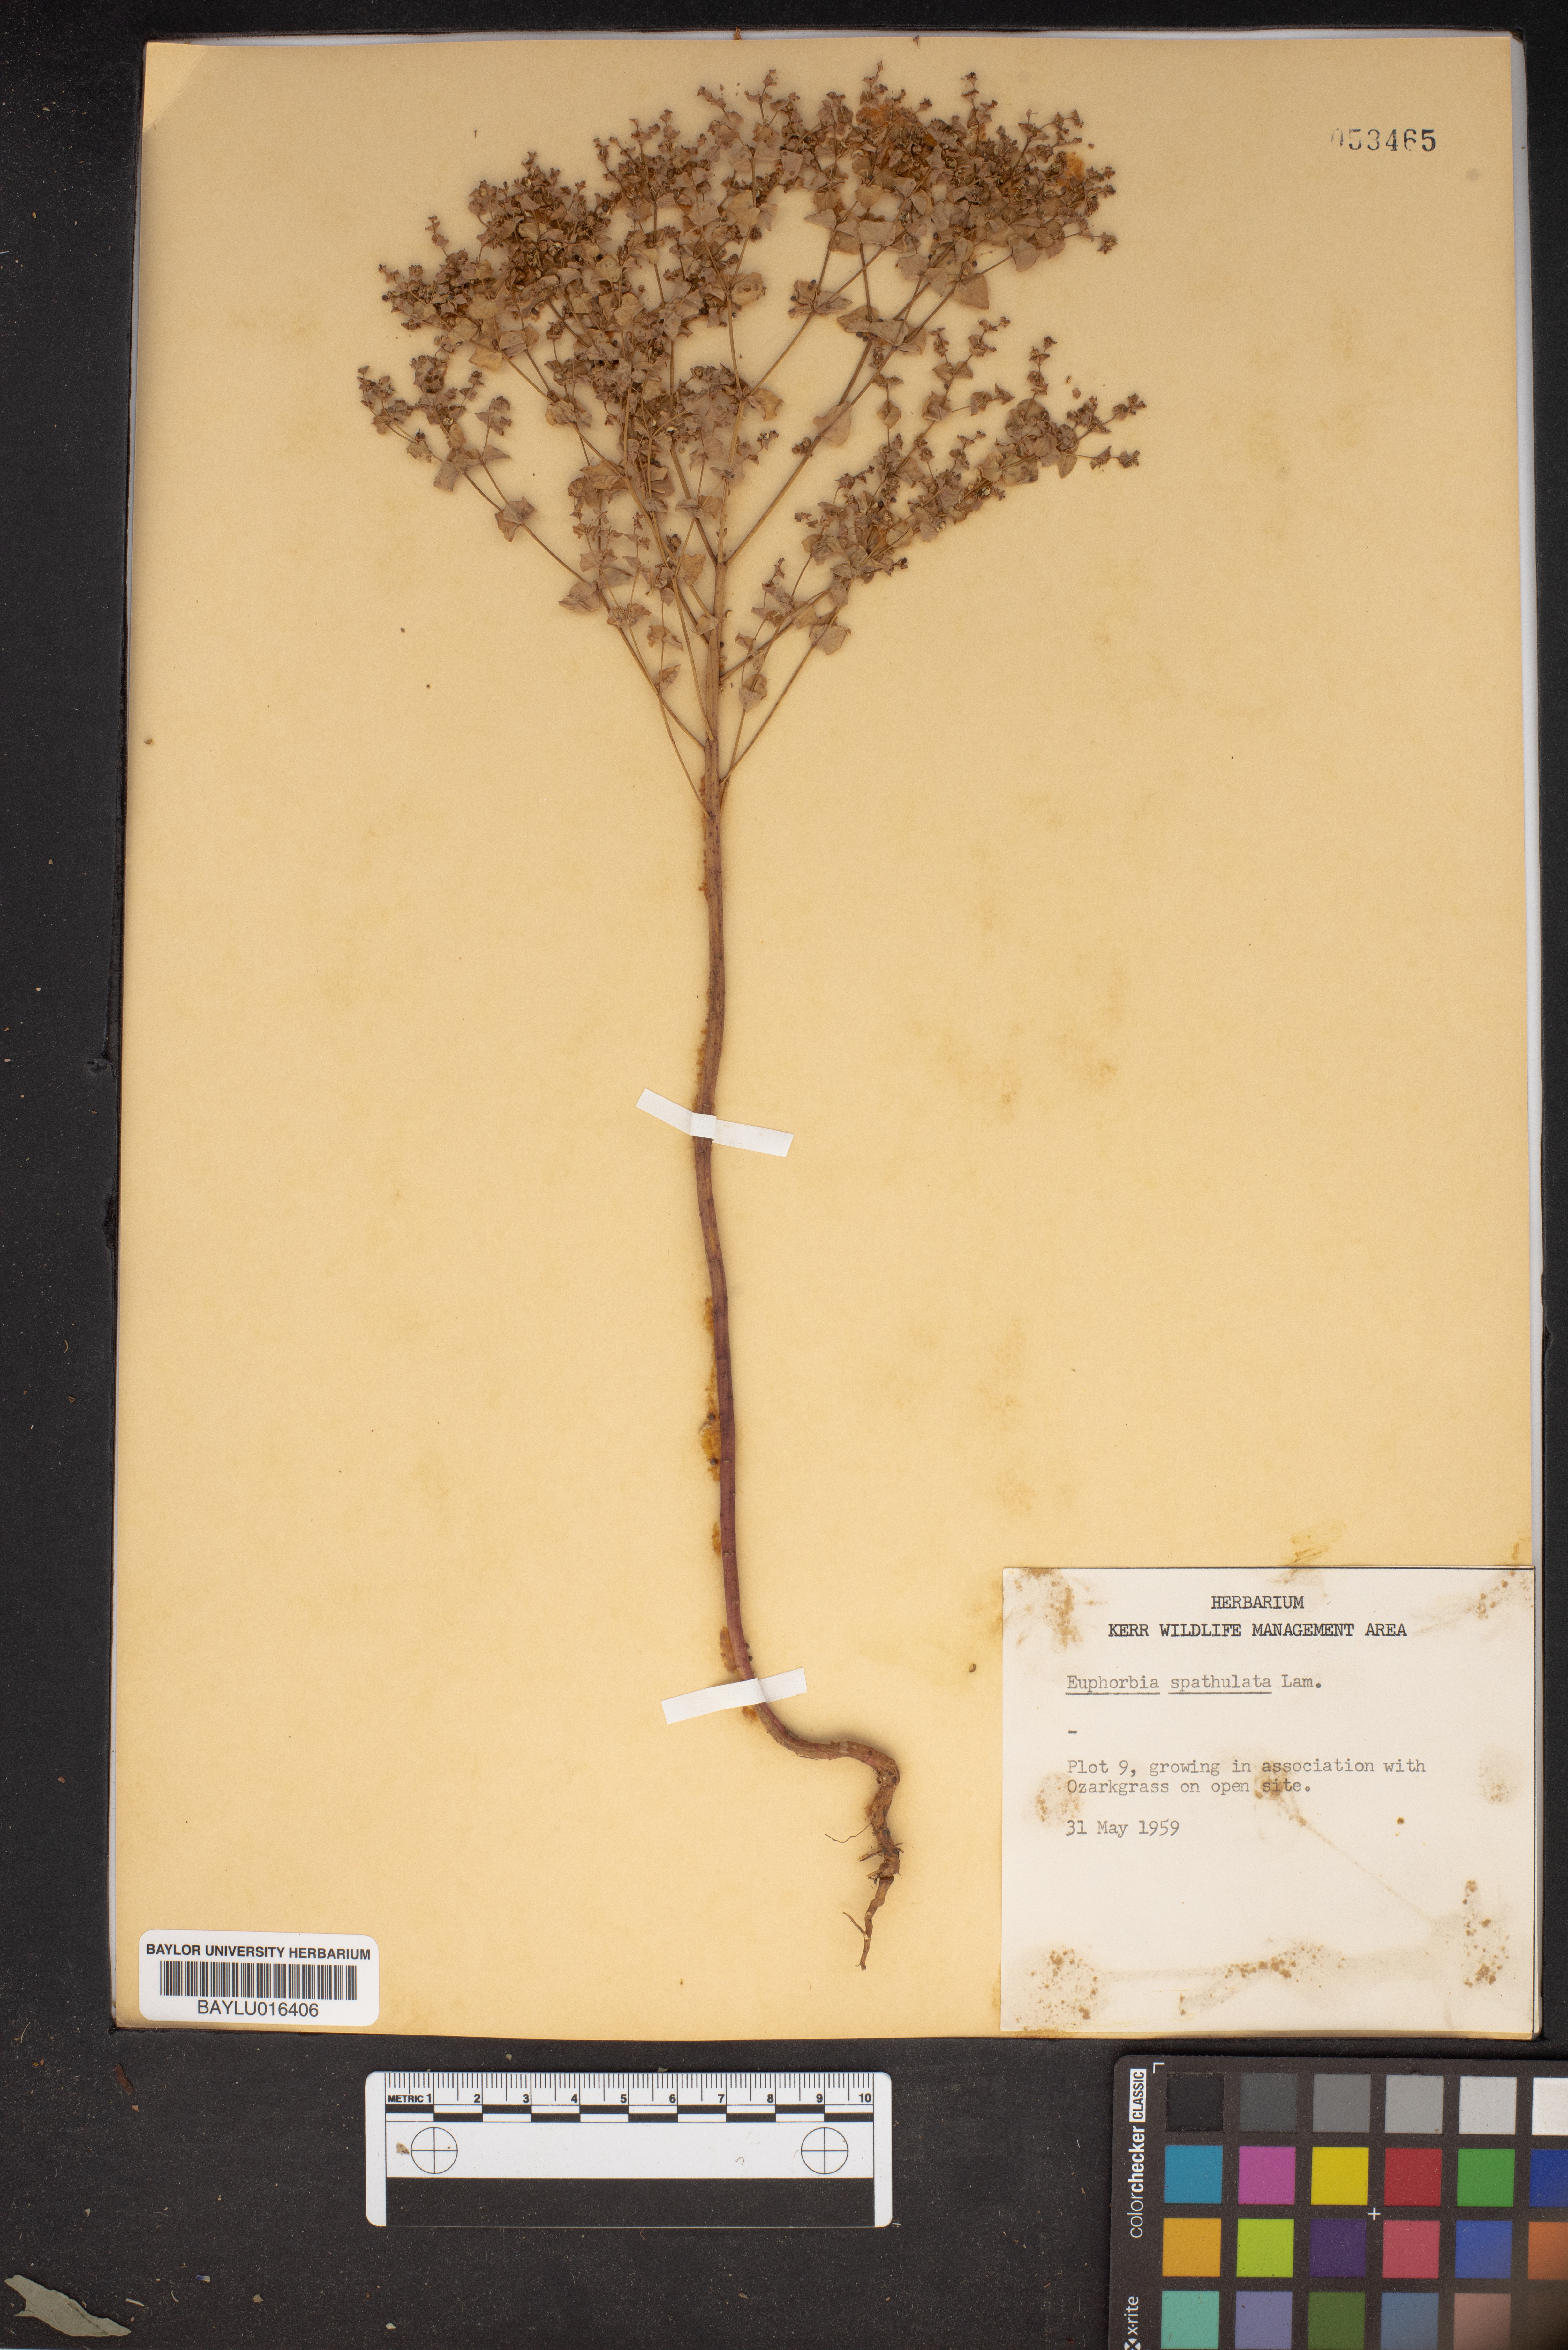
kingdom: Plantae
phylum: Tracheophyta
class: Magnoliopsida
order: Malpighiales
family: Euphorbiaceae
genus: Euphorbia
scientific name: Euphorbia spathulata
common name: Blunt spurge
